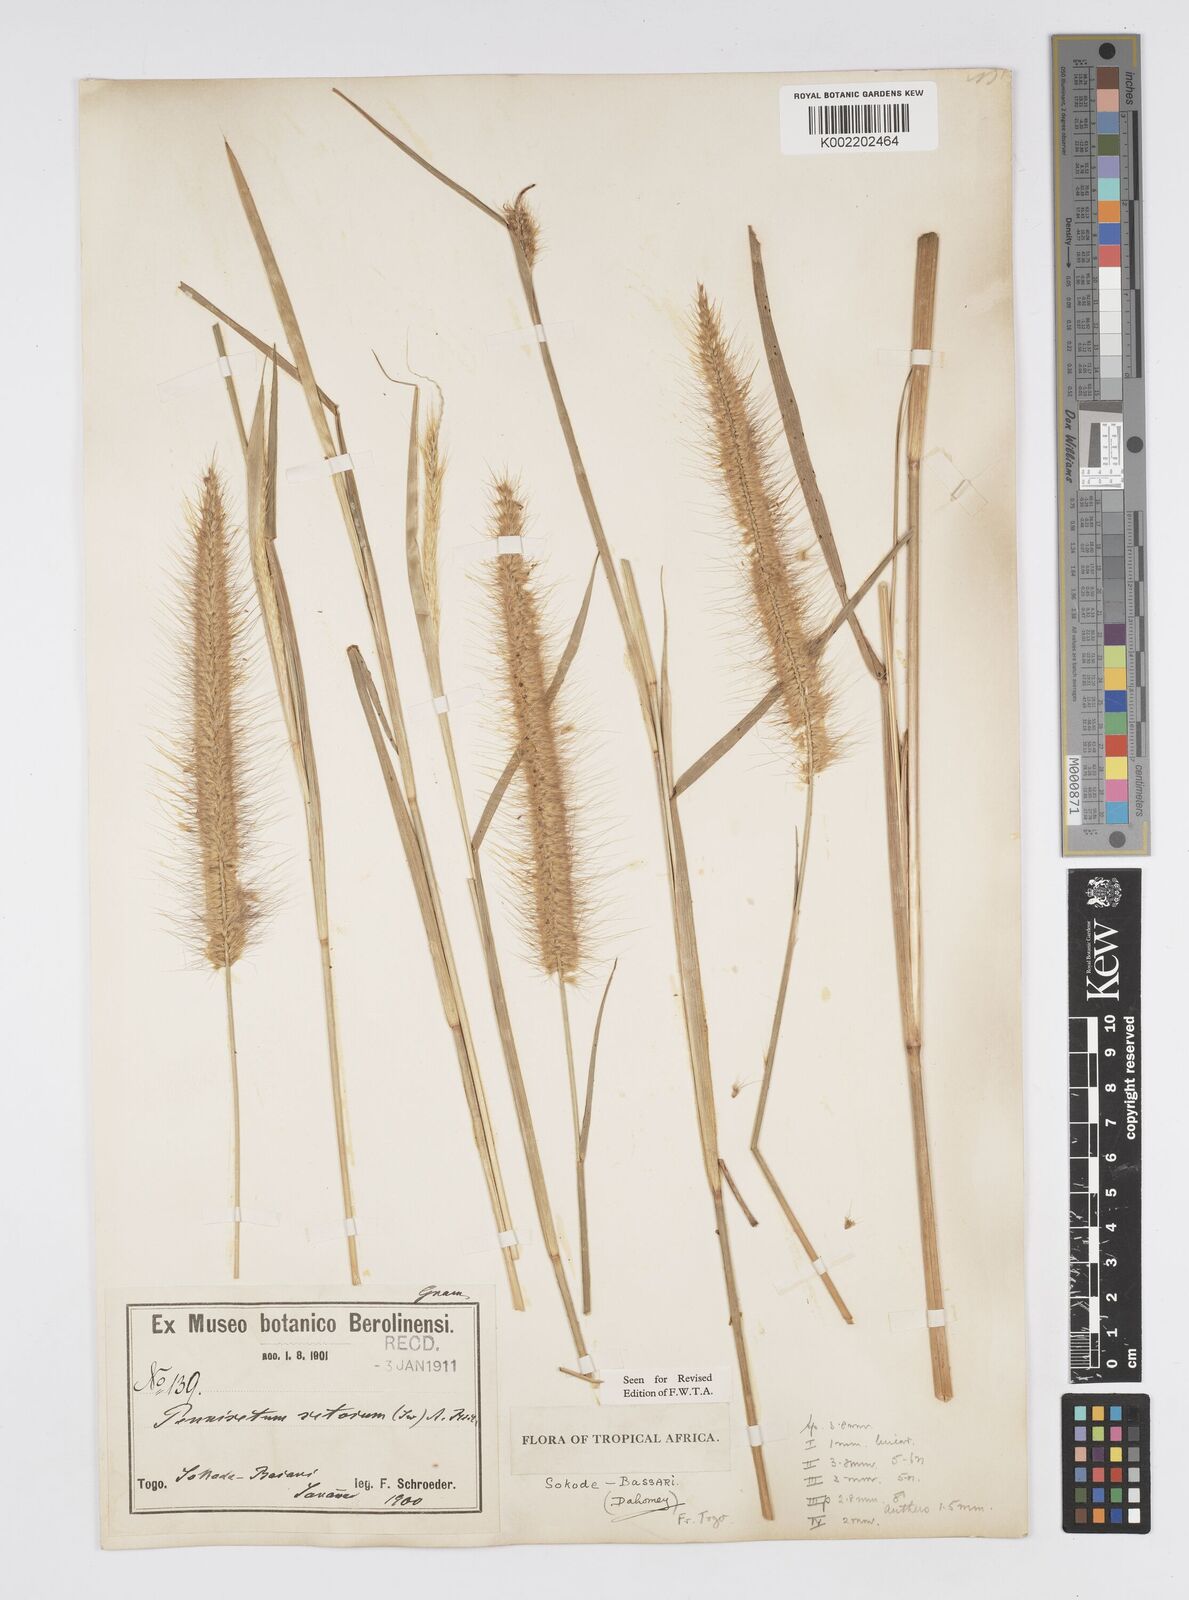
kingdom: Plantae
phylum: Tracheophyta
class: Liliopsida
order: Poales
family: Poaceae
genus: Setaria
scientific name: Setaria parviflora
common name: Knotroot bristle-grass
